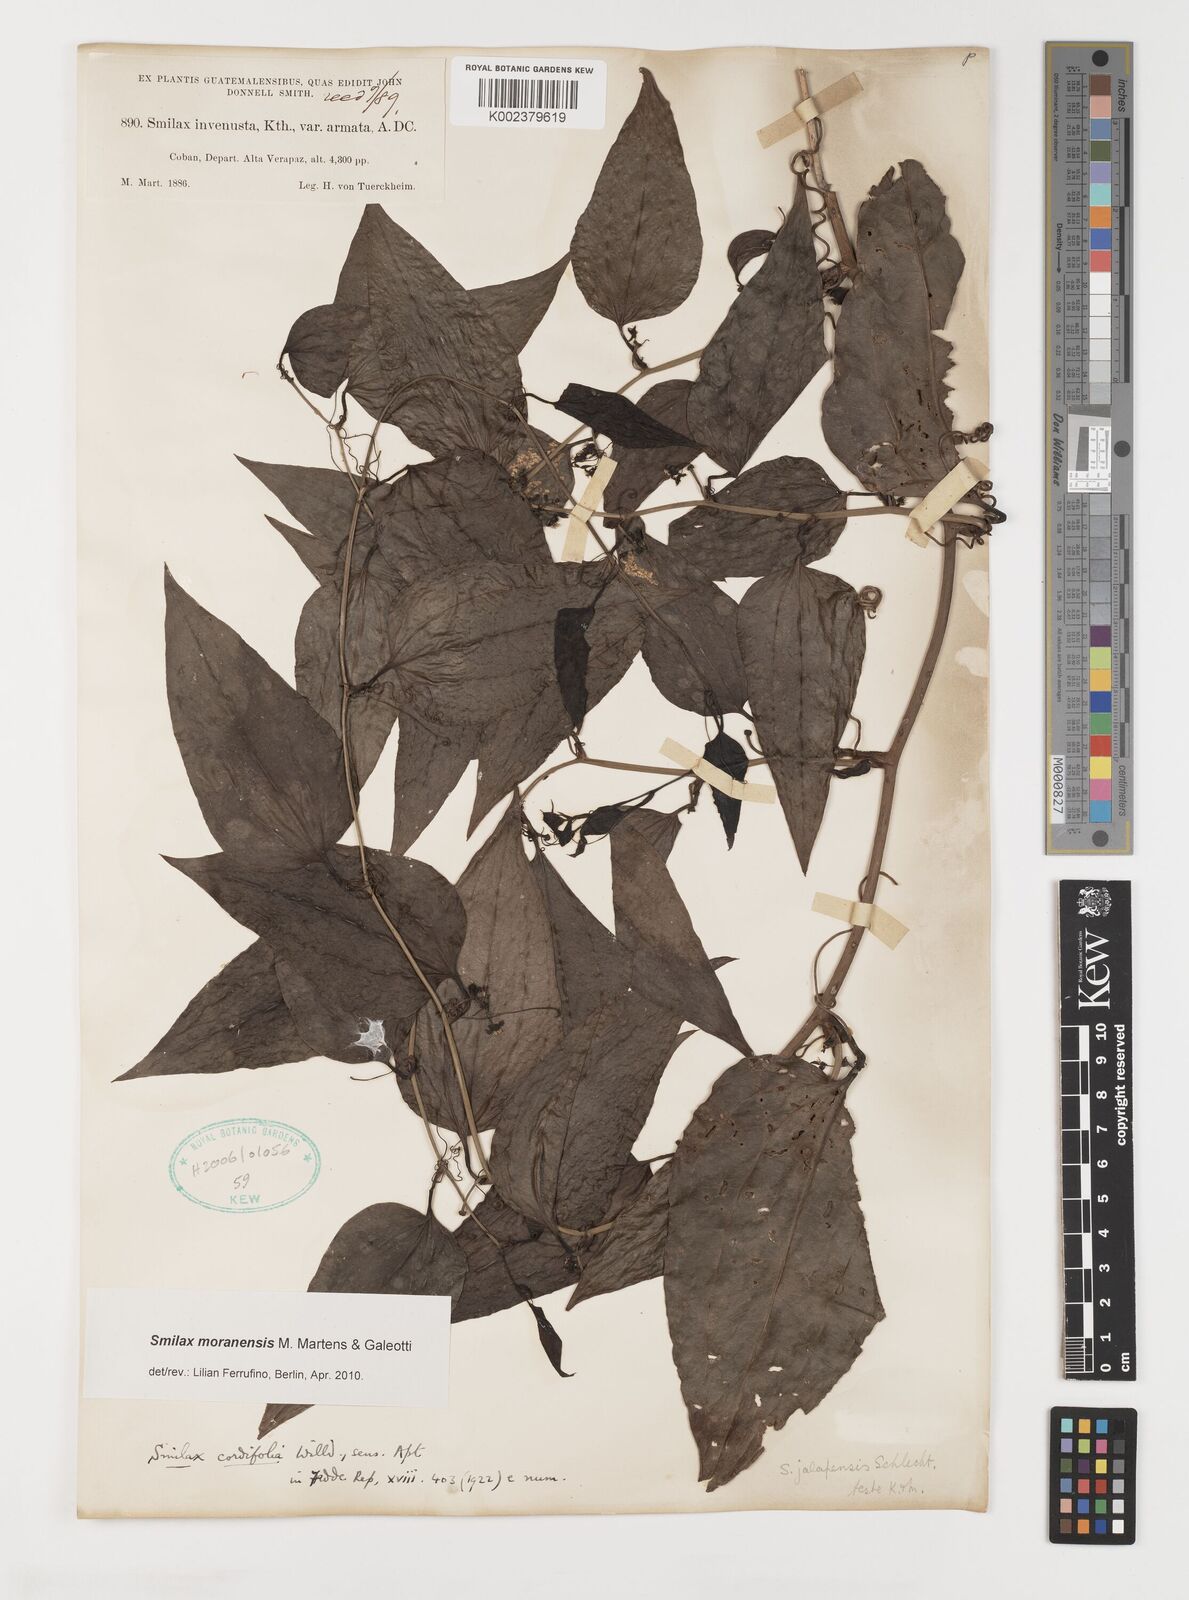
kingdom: Plantae
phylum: Tracheophyta
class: Liliopsida
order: Liliales
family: Smilacaceae
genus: Smilax
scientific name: Smilax moranensis
